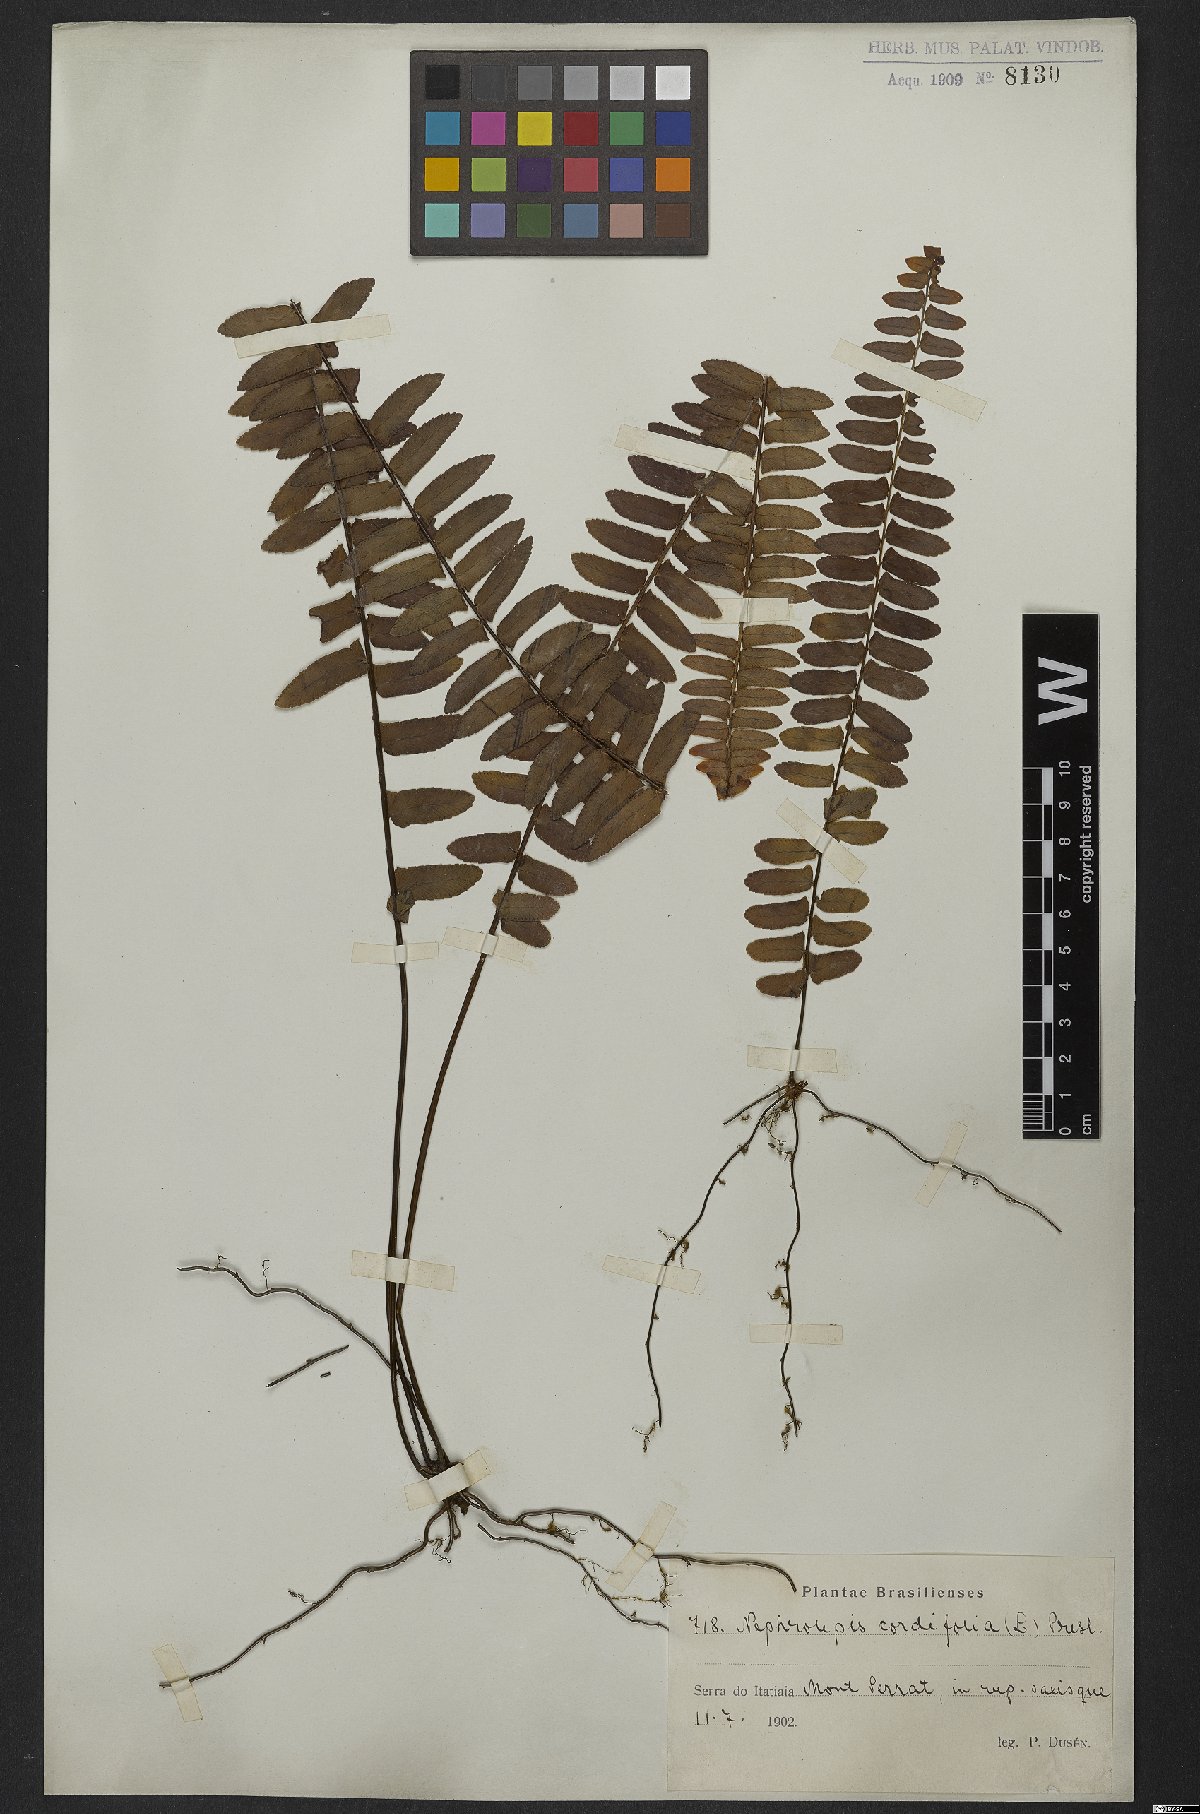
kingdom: Plantae
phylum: Tracheophyta
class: Polypodiopsida
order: Polypodiales
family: Nephrolepidaceae
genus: Nephrolepis
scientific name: Nephrolepis cordifolia
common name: Narrow swordfern
